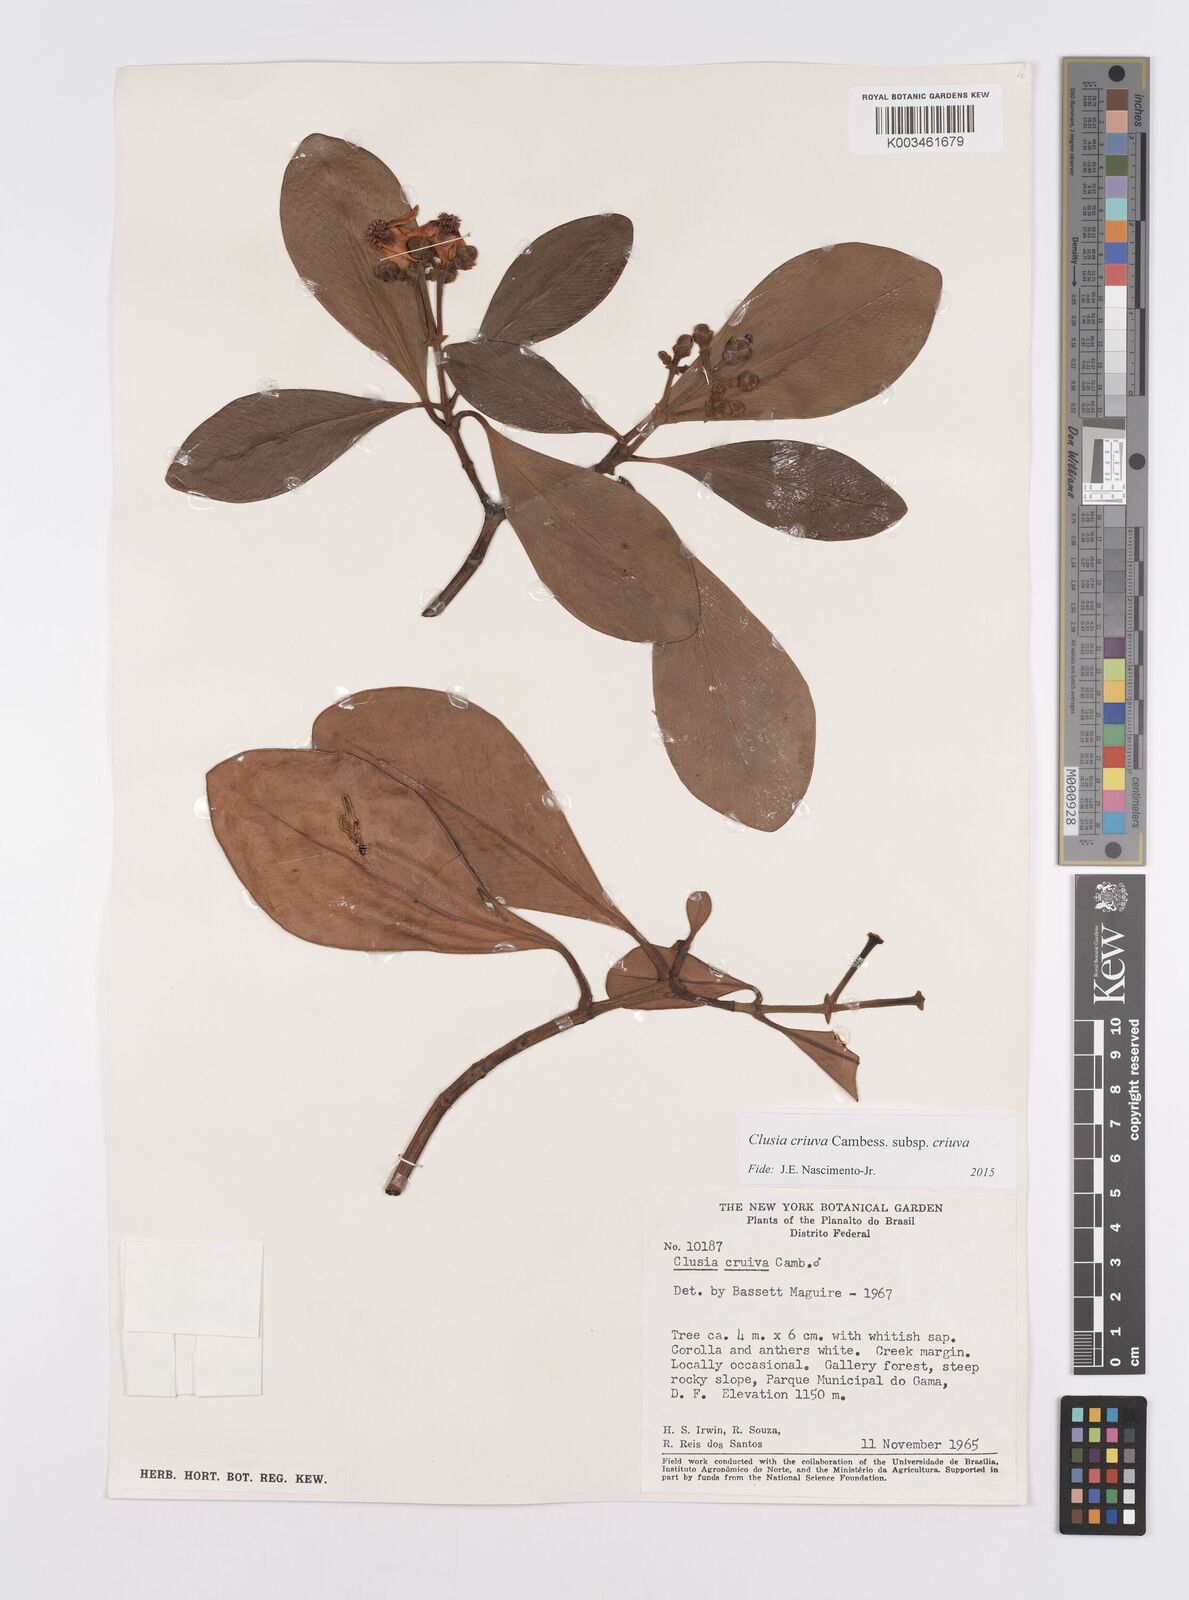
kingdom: Plantae
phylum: Tracheophyta
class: Magnoliopsida
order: Malpighiales
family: Clusiaceae
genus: Clusia
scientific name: Clusia criuva
